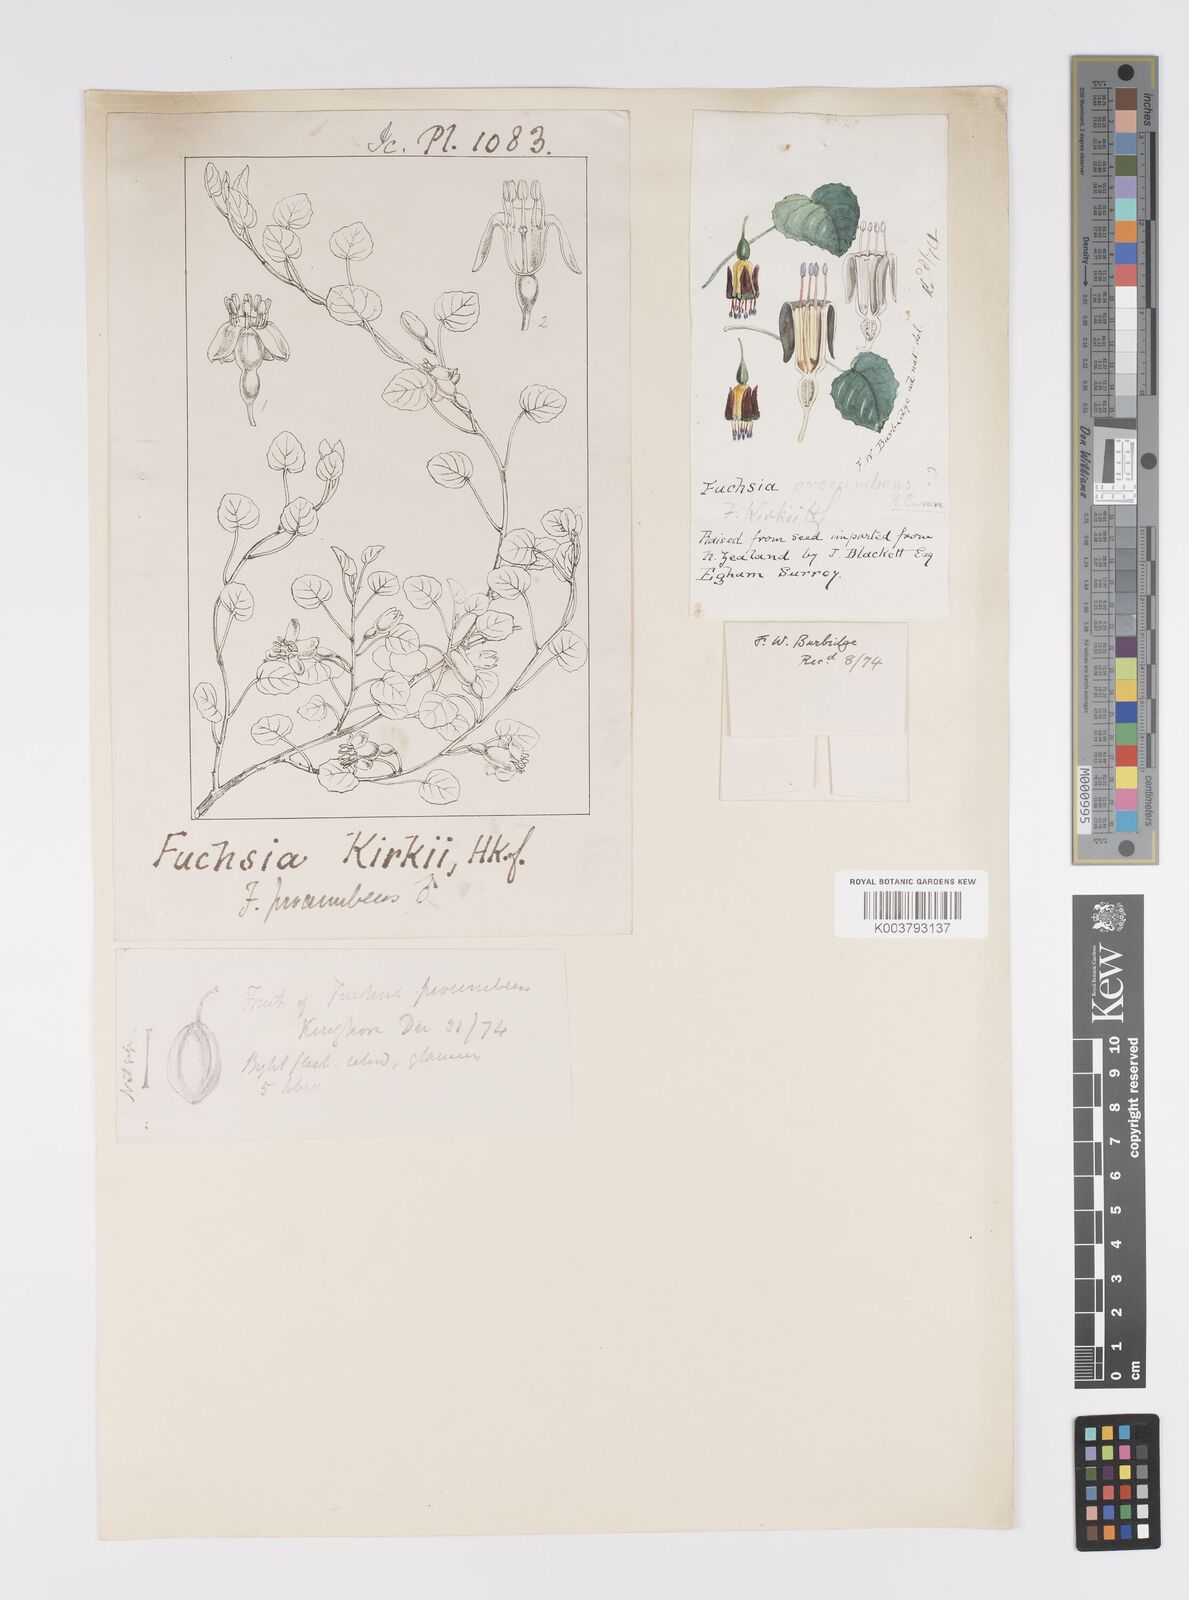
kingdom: Plantae
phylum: Tracheophyta
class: Magnoliopsida
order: Myrtales
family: Onagraceae
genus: Fuchsia
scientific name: Fuchsia procumbens
